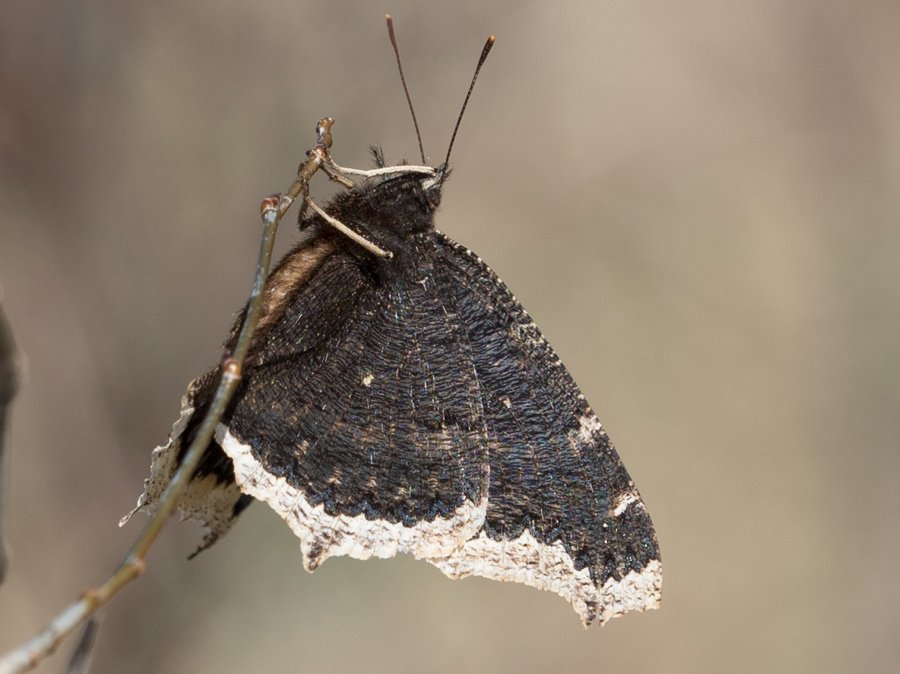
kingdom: Animalia
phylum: Arthropoda
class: Insecta
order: Lepidoptera
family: Nymphalidae
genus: Nymphalis
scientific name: Nymphalis antiopa
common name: Mourning Cloak
